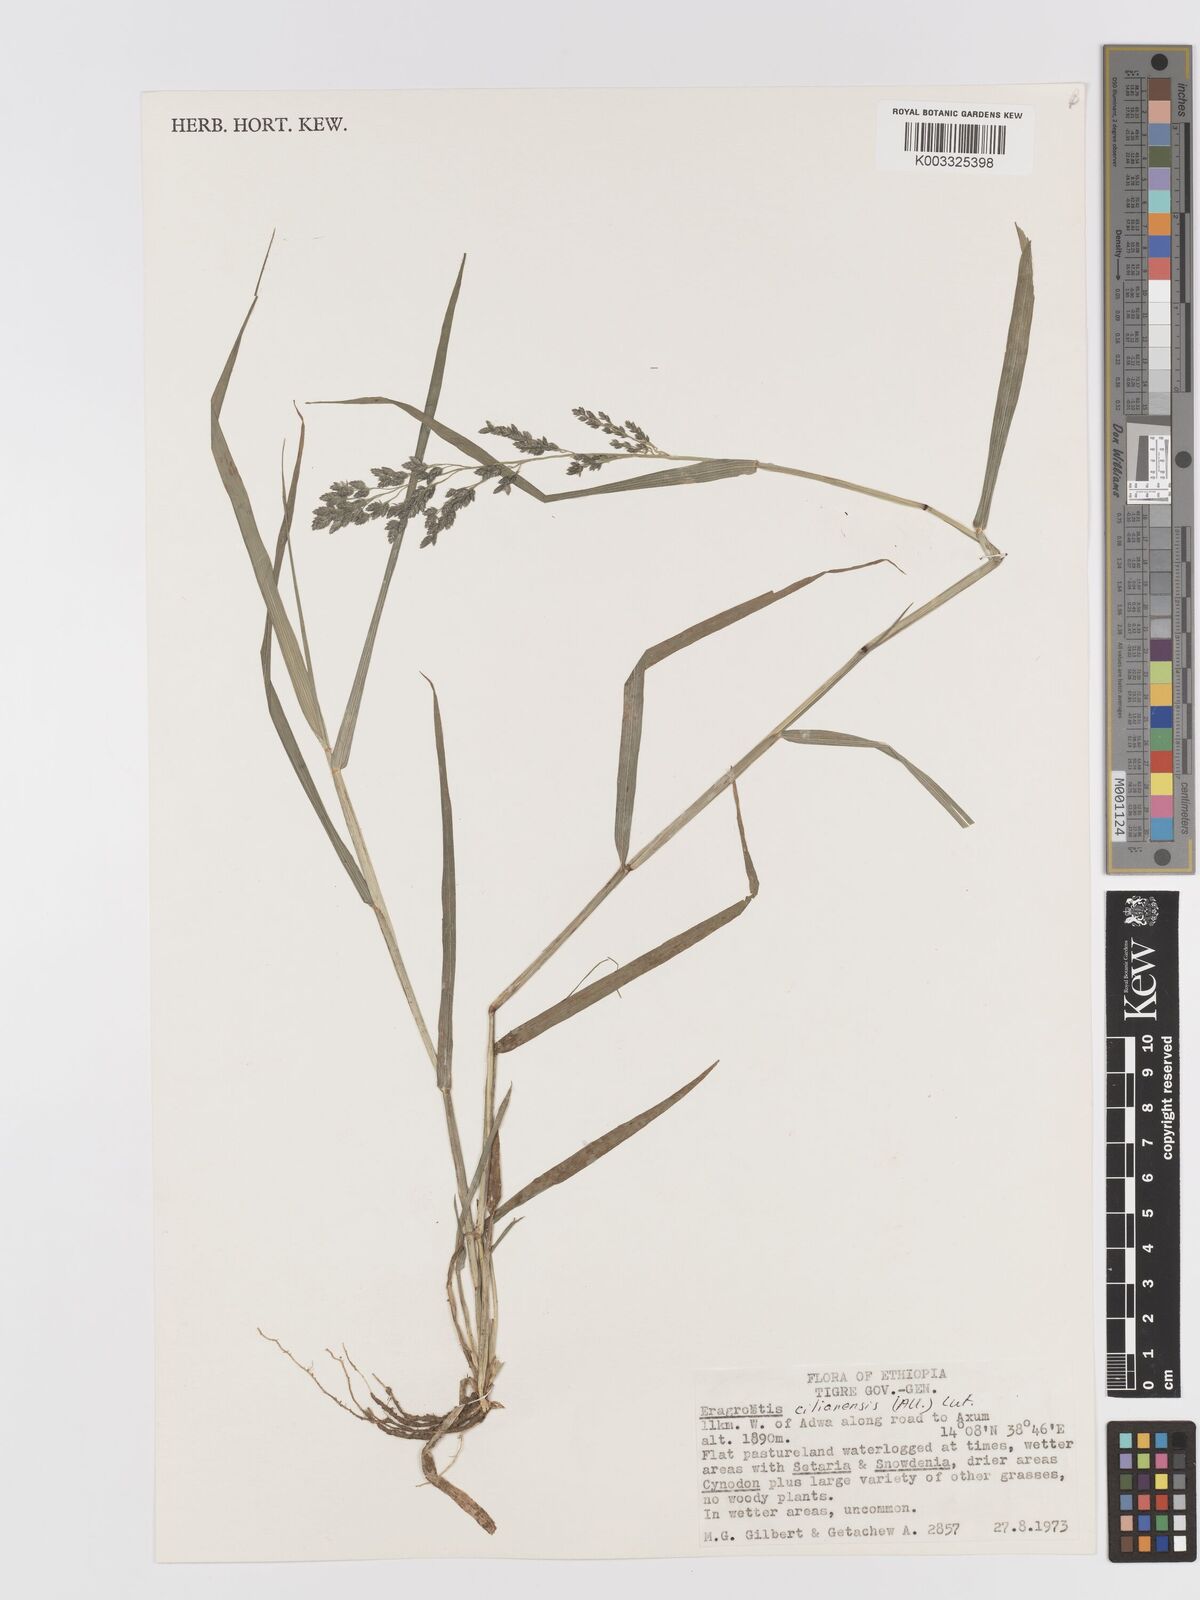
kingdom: Plantae
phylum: Tracheophyta
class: Liliopsida
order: Poales
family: Poaceae
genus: Eragrostis
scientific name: Eragrostis cilianensis
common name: Stinkgrass
